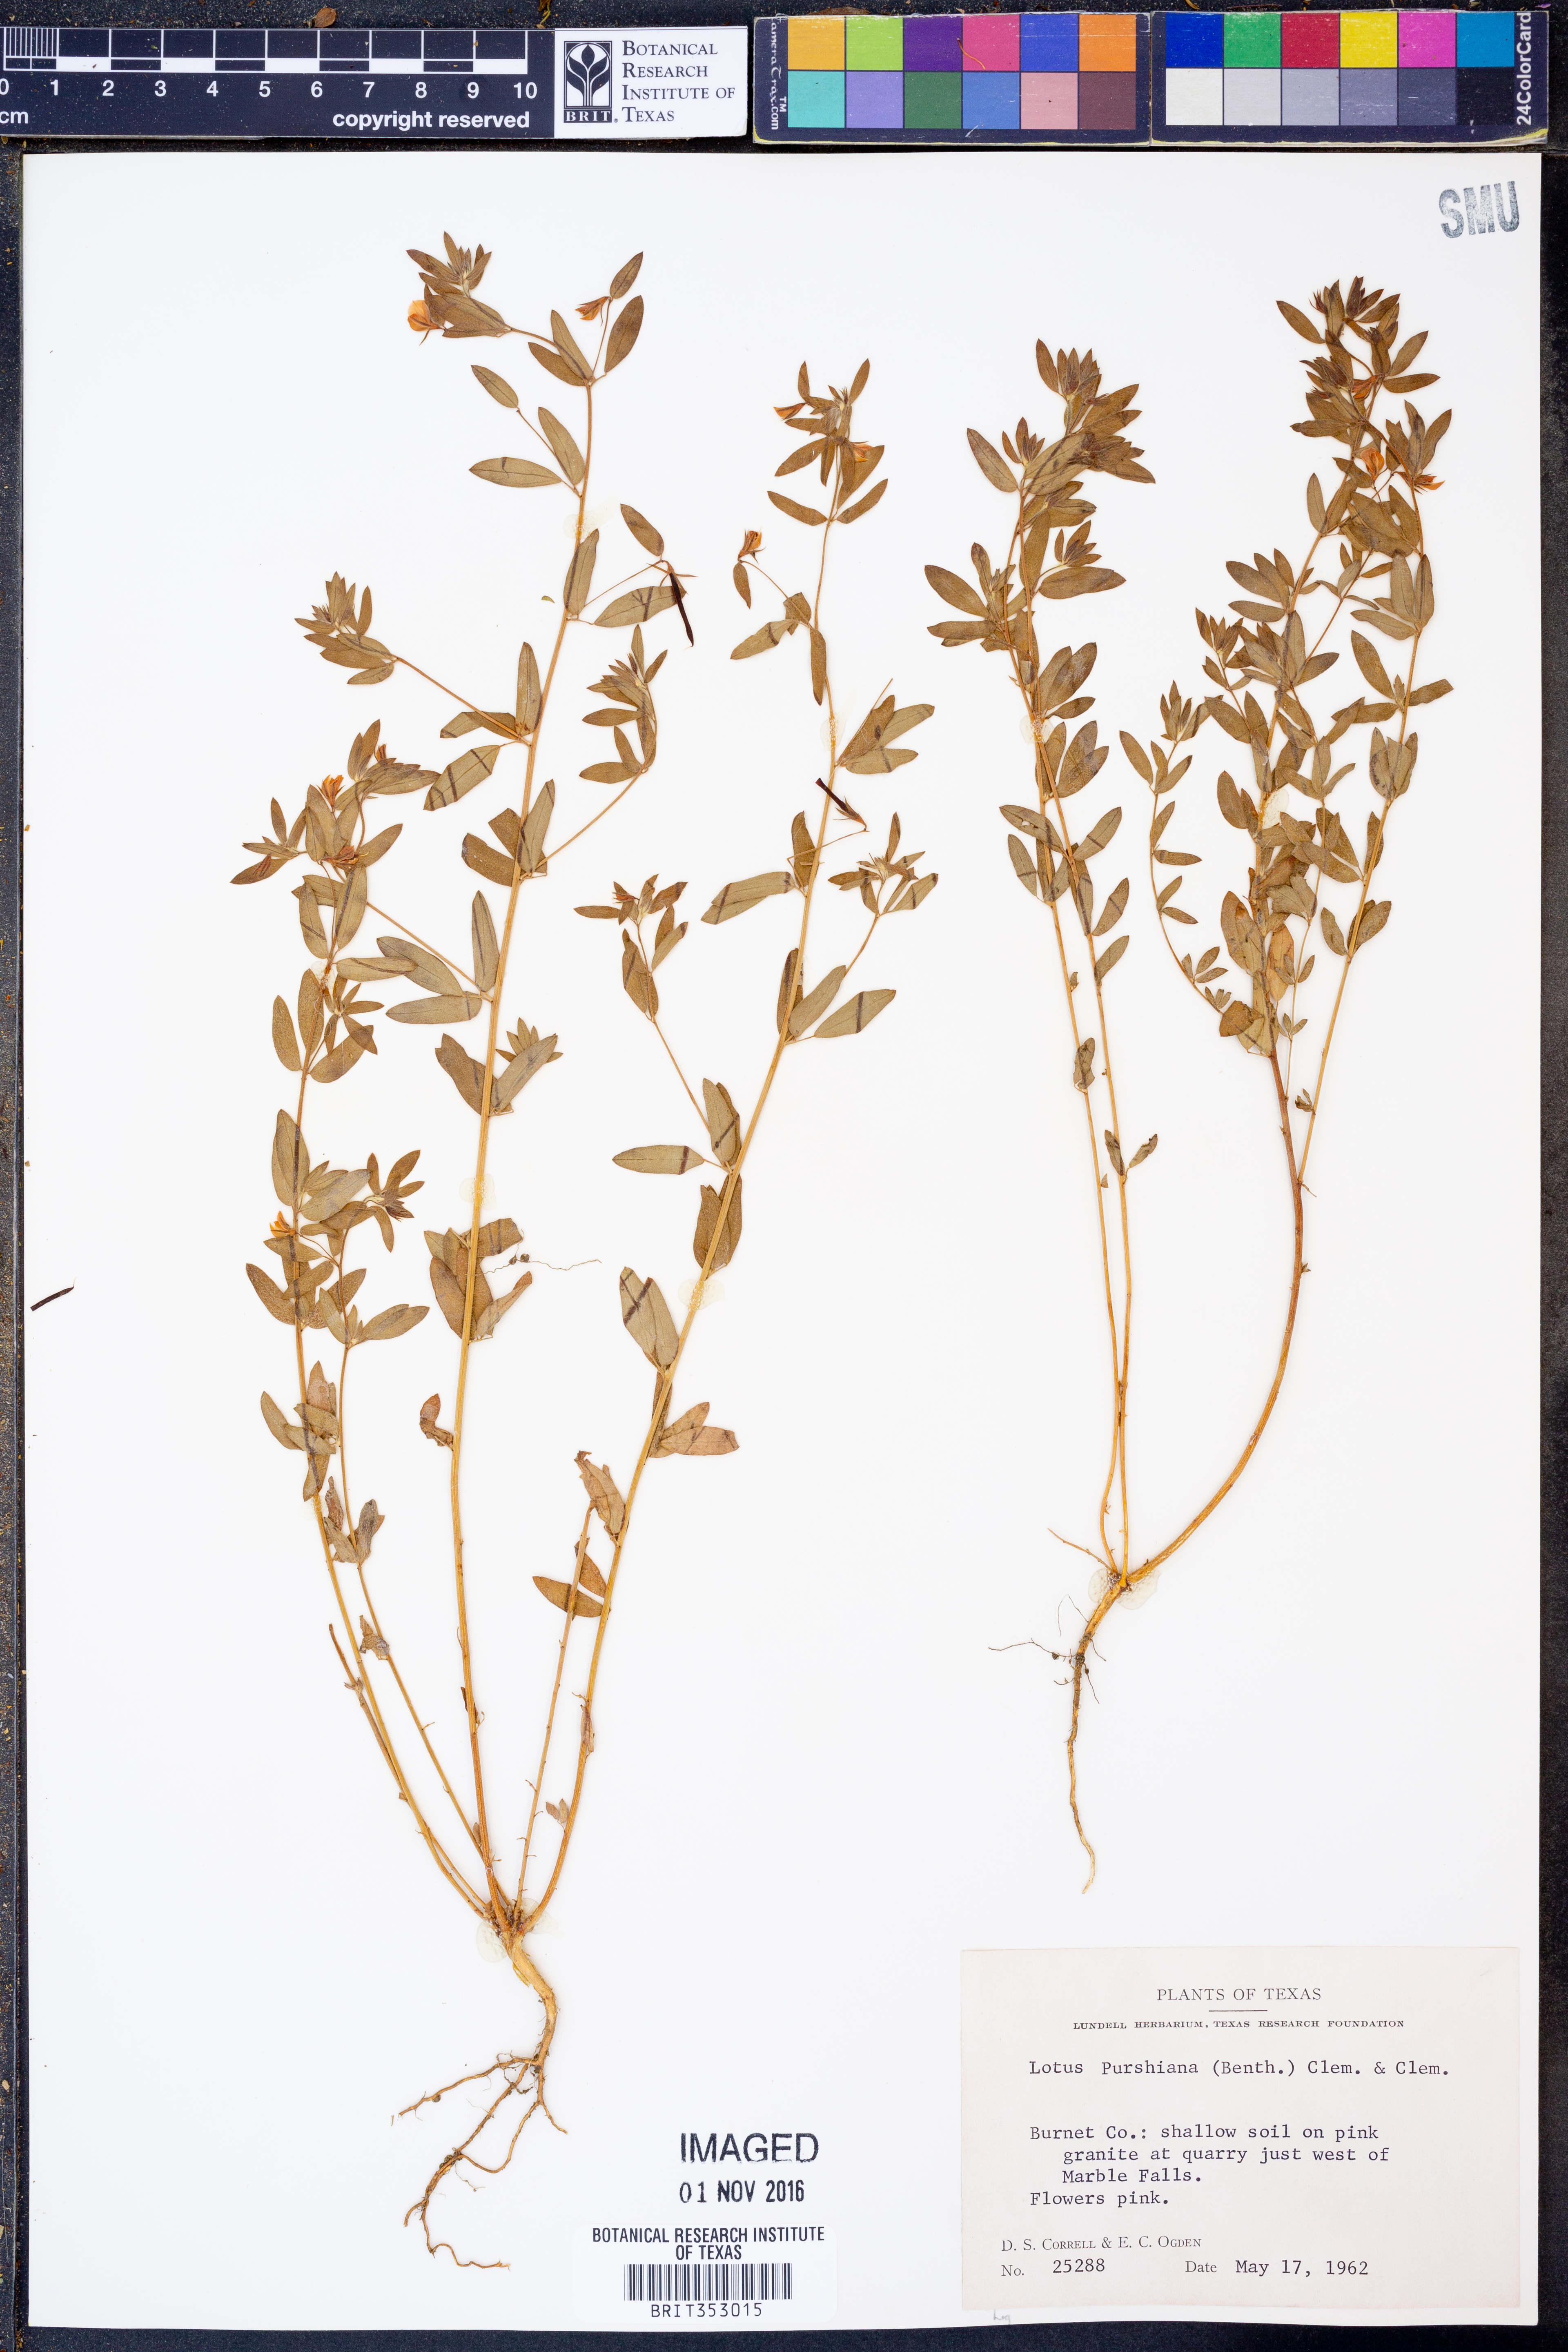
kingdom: Plantae
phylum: Tracheophyta
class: Magnoliopsida
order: Fabales
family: Fabaceae
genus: Acmispon
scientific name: Acmispon americanus
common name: American bird's-foot trefoil
